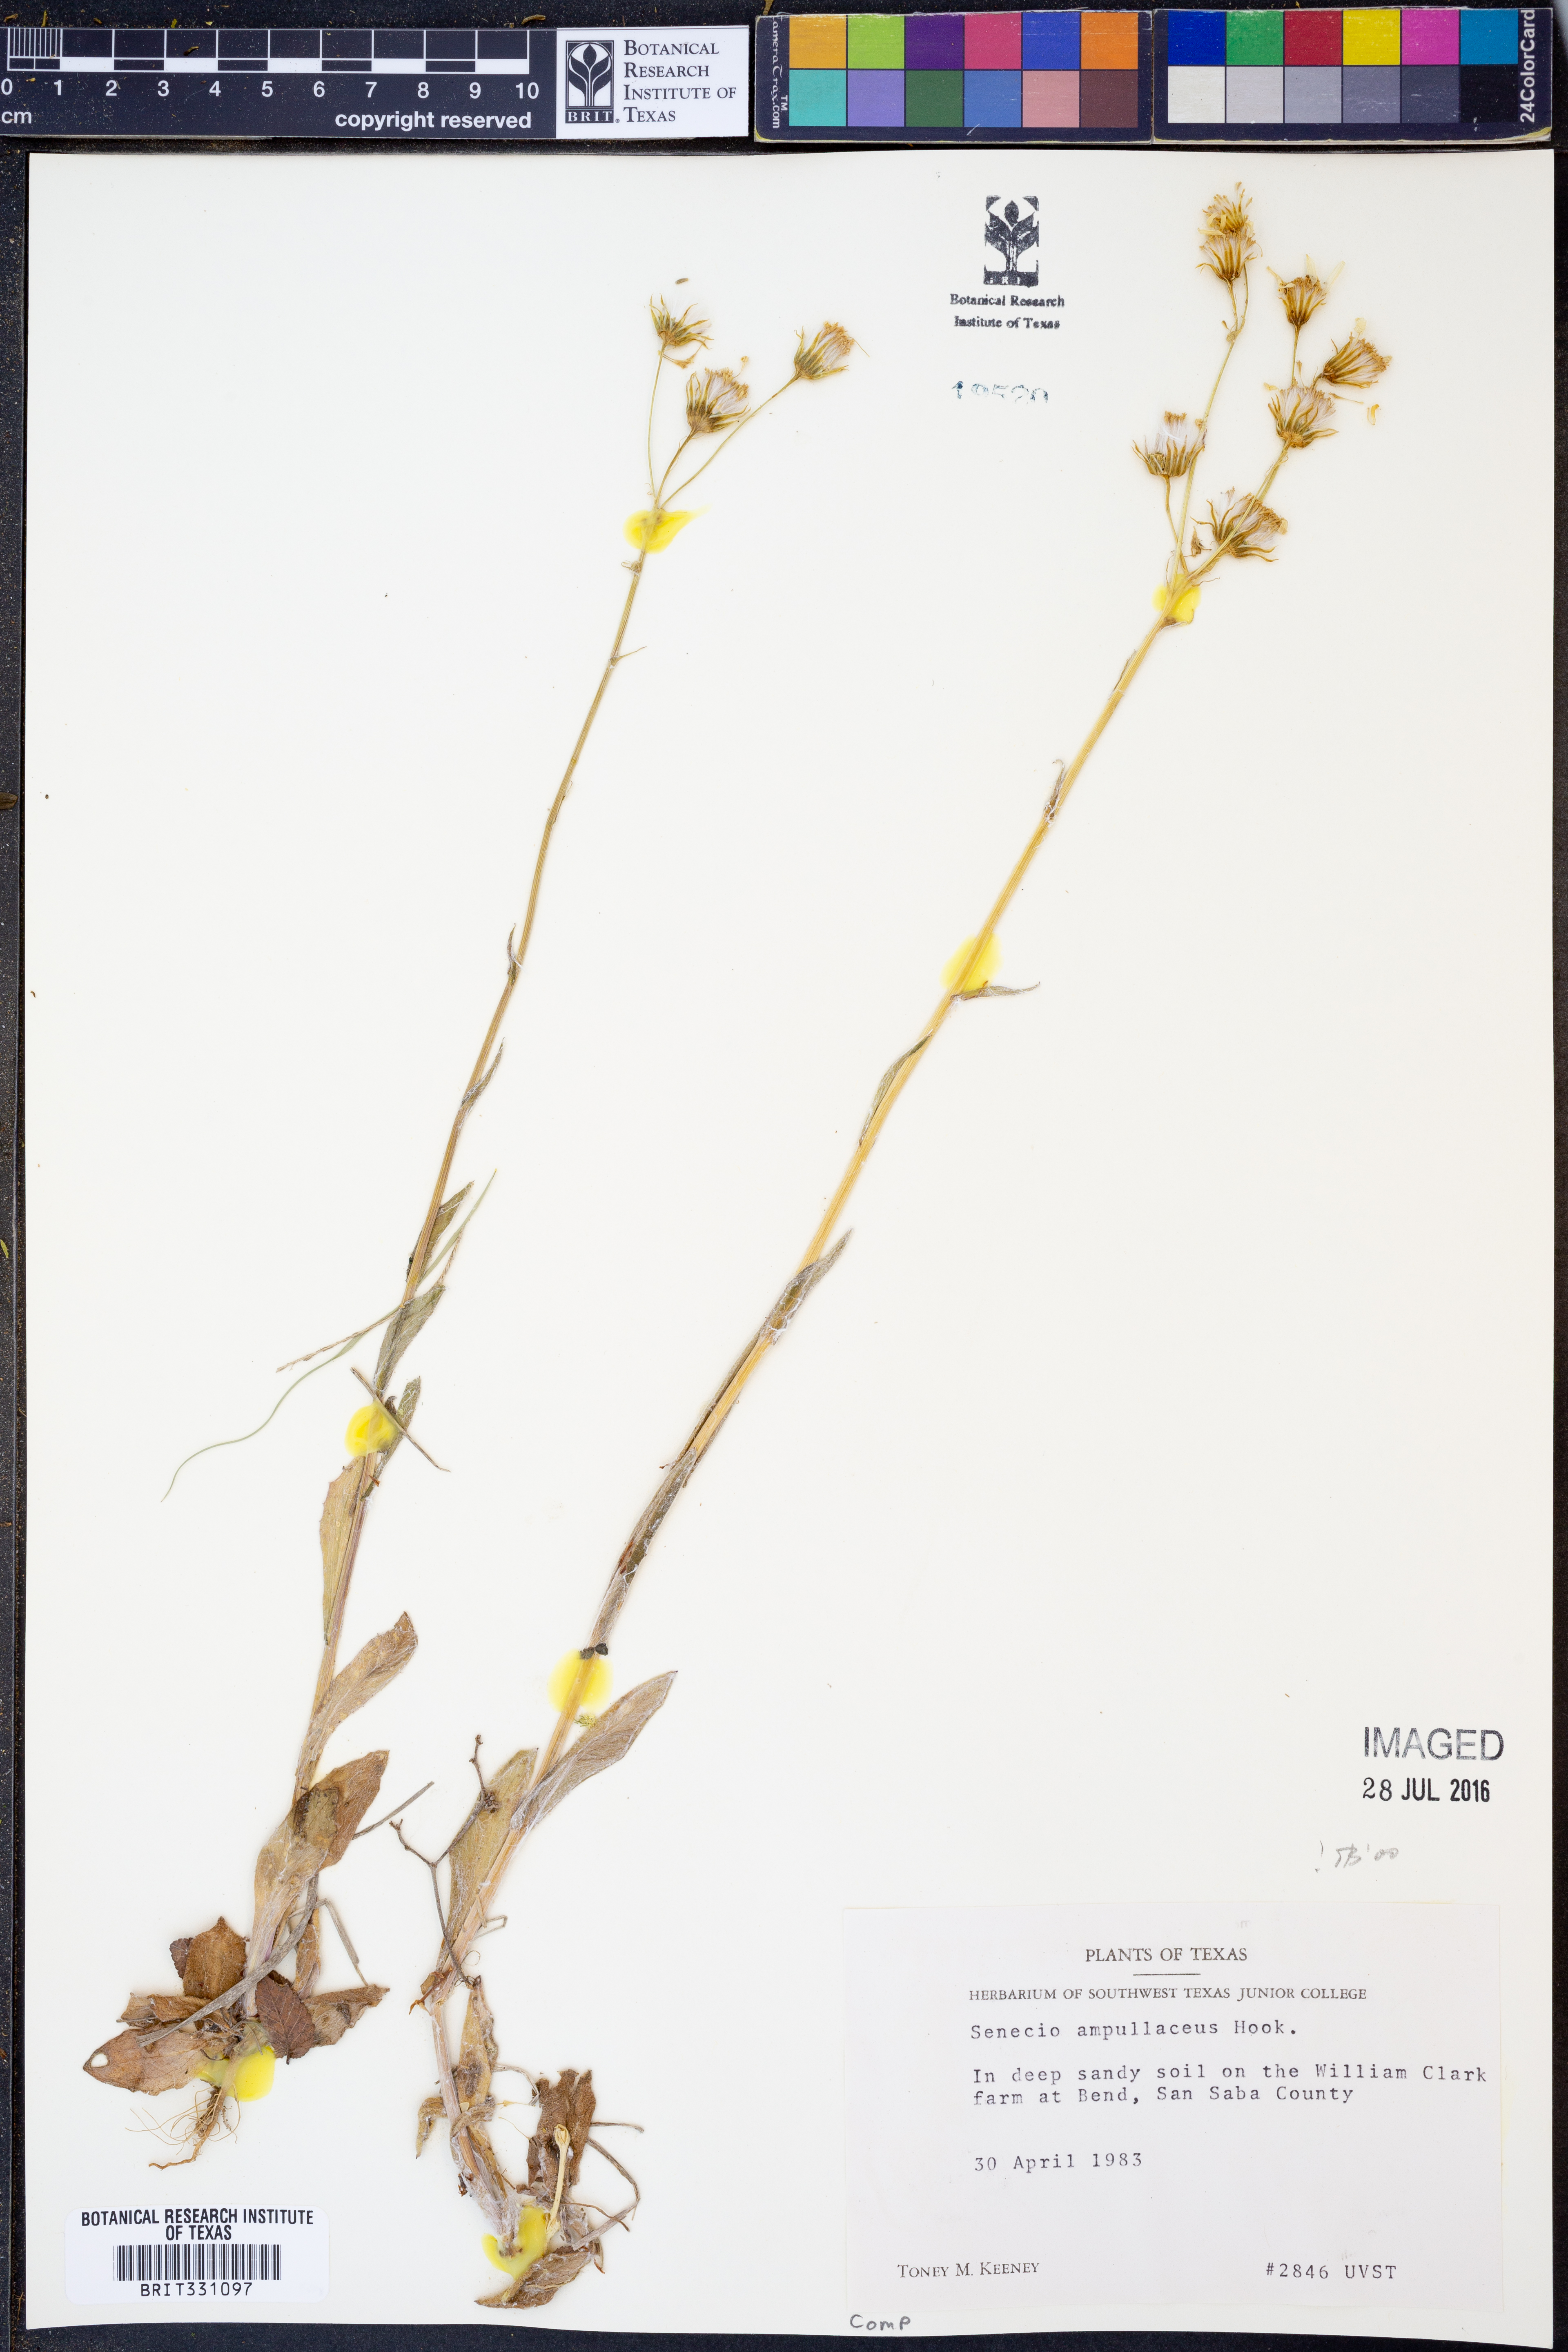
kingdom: Plantae
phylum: Tracheophyta
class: Magnoliopsida
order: Asterales
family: Asteraceae
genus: Senecio
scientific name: Senecio ampullaceus
